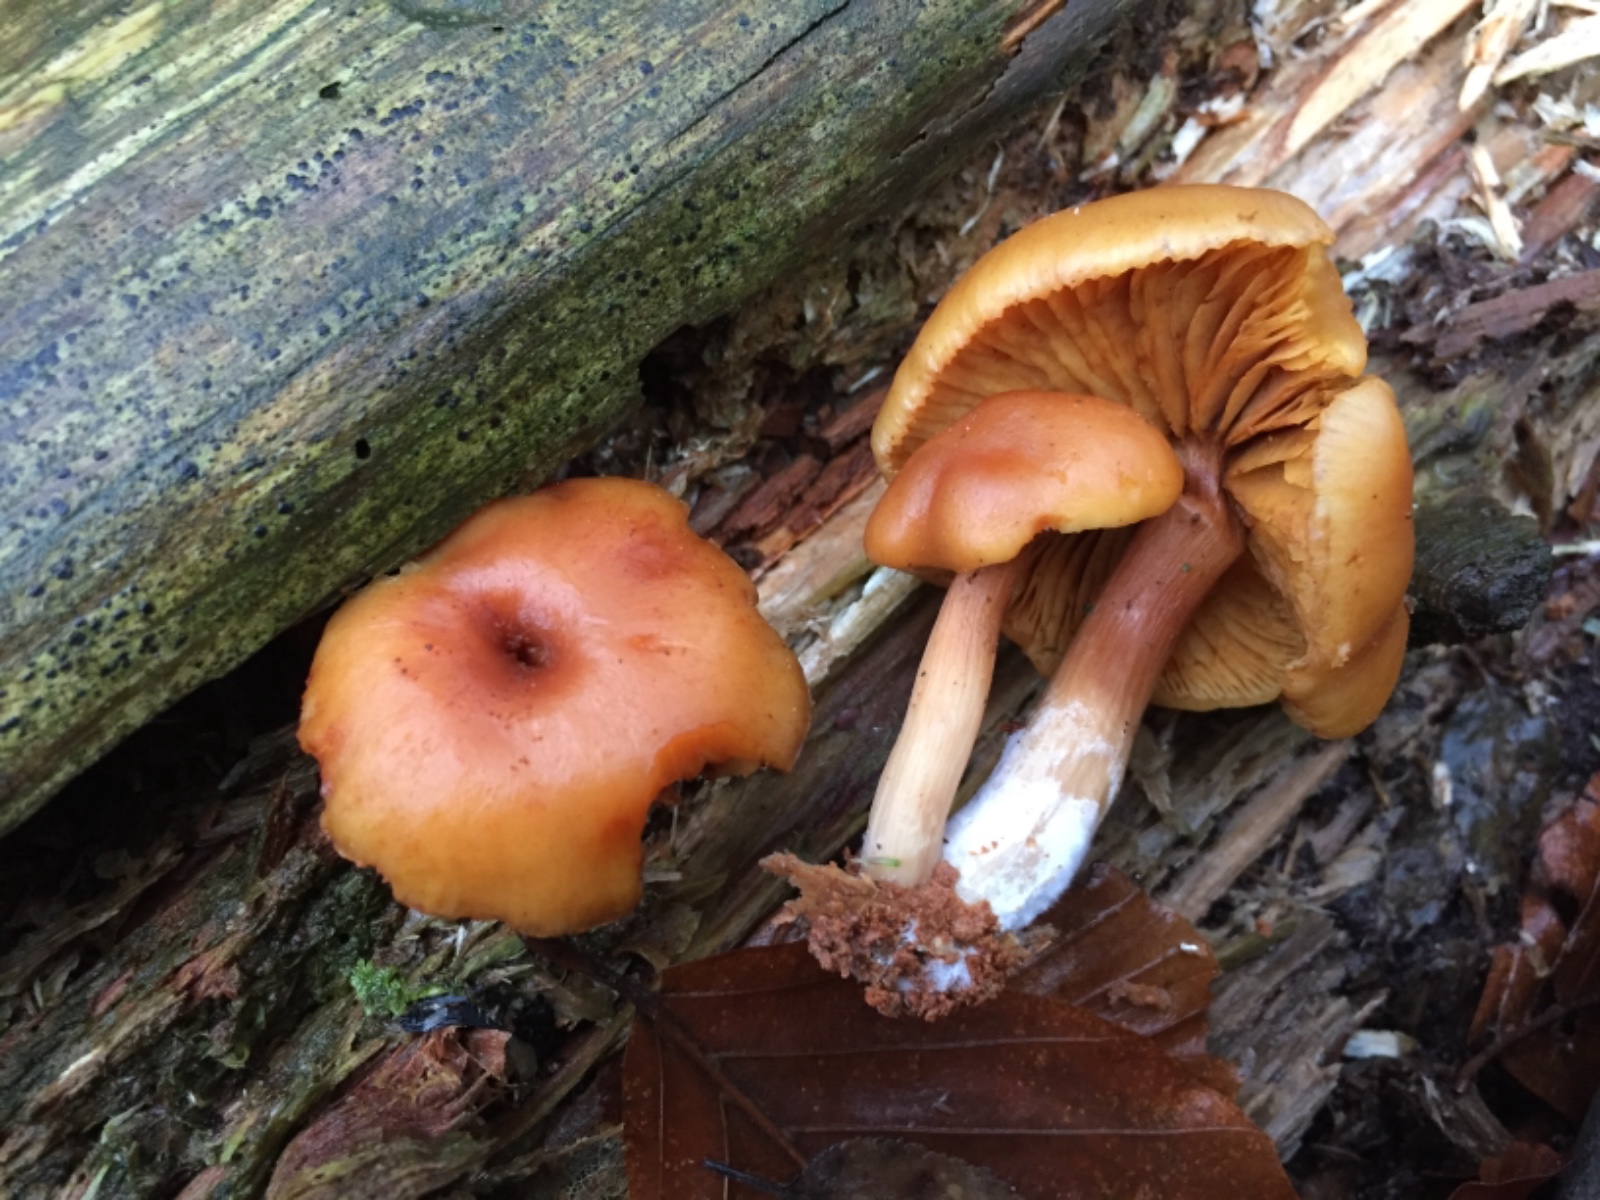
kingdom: Fungi
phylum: Basidiomycota
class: Agaricomycetes
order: Agaricales
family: Hymenogastraceae
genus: Gymnopilus
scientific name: Gymnopilus penetrans
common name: plettet flammehat
